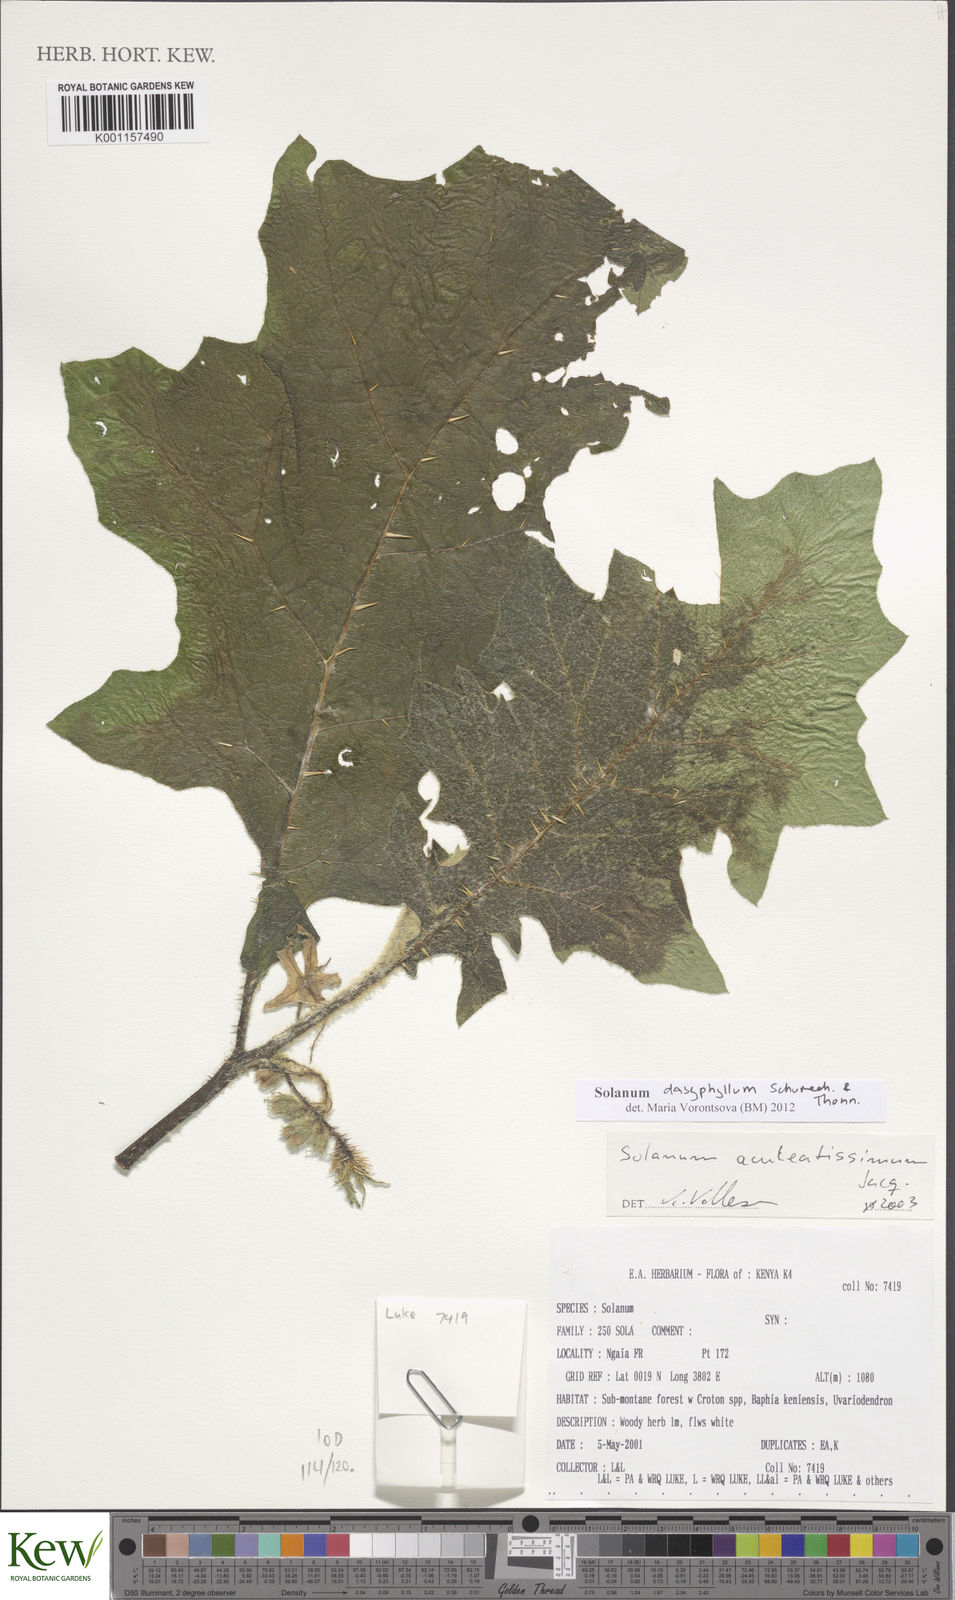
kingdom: Plantae
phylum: Tracheophyta
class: Magnoliopsida
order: Solanales
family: Solanaceae
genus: Solanum
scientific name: Solanum dasyphyllum
